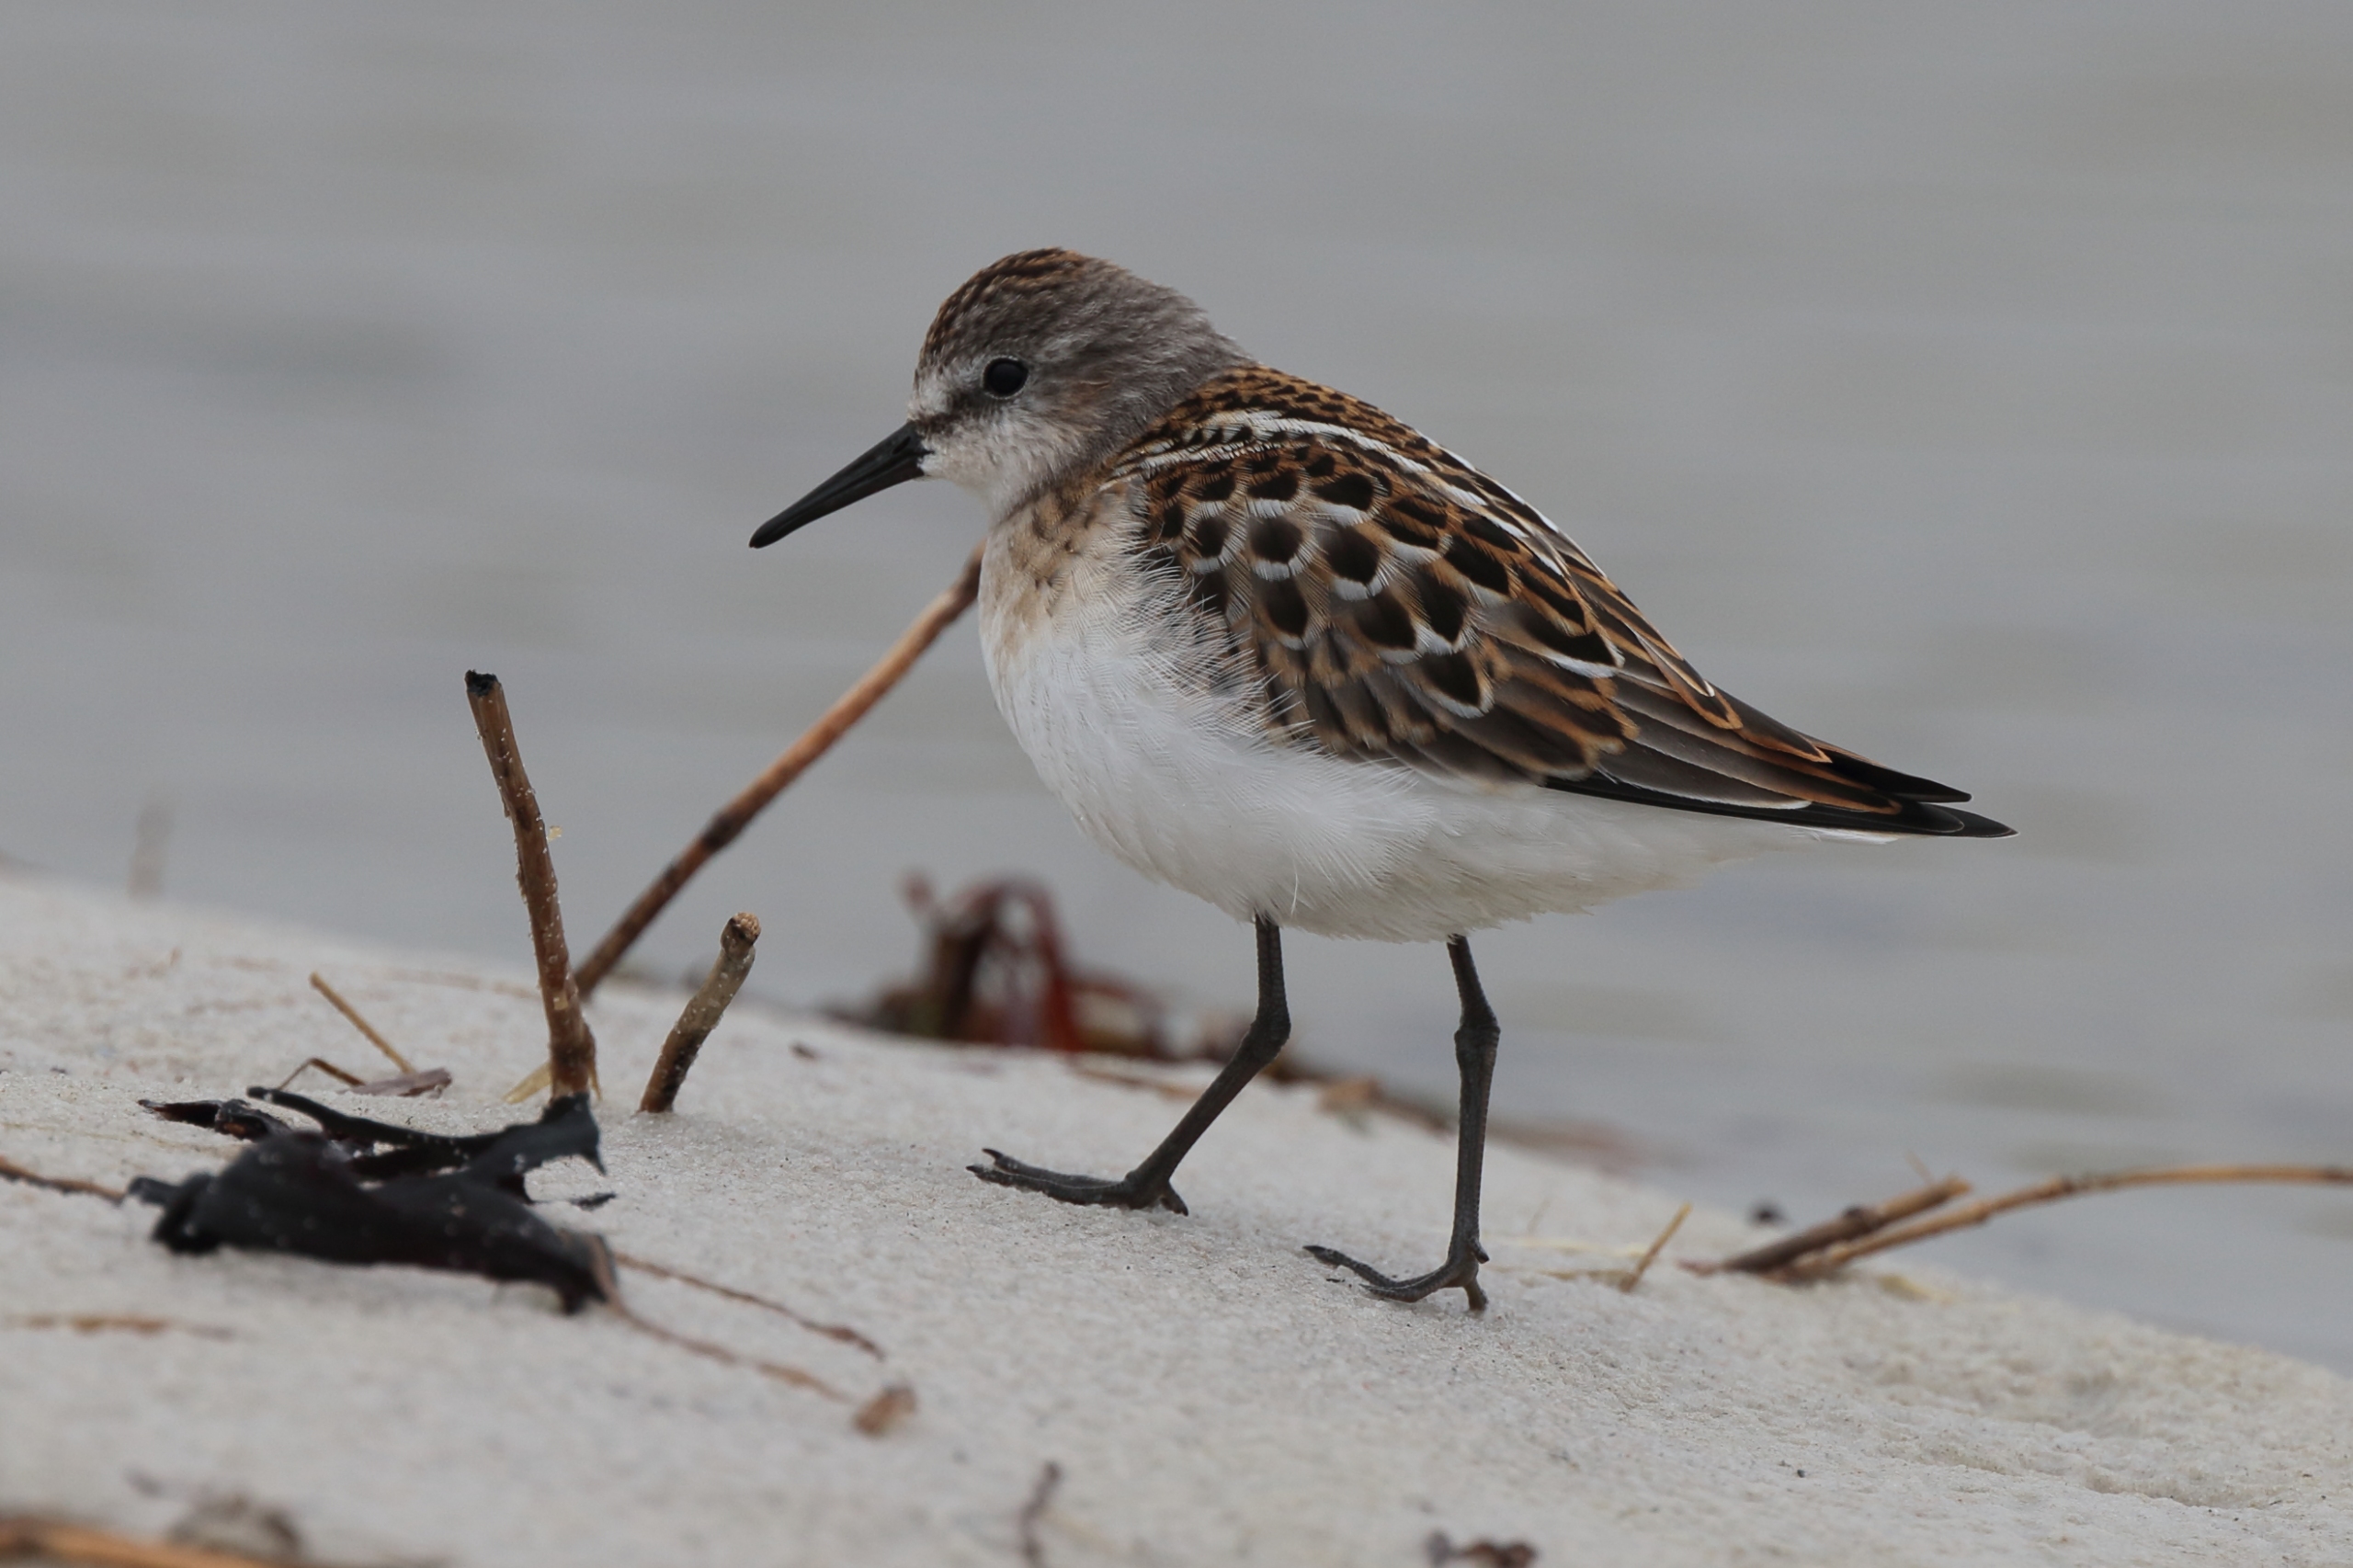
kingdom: Animalia
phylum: Chordata
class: Aves
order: Charadriiformes
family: Scolopacidae
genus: Calidris
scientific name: Calidris minuta
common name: Dværgryle
